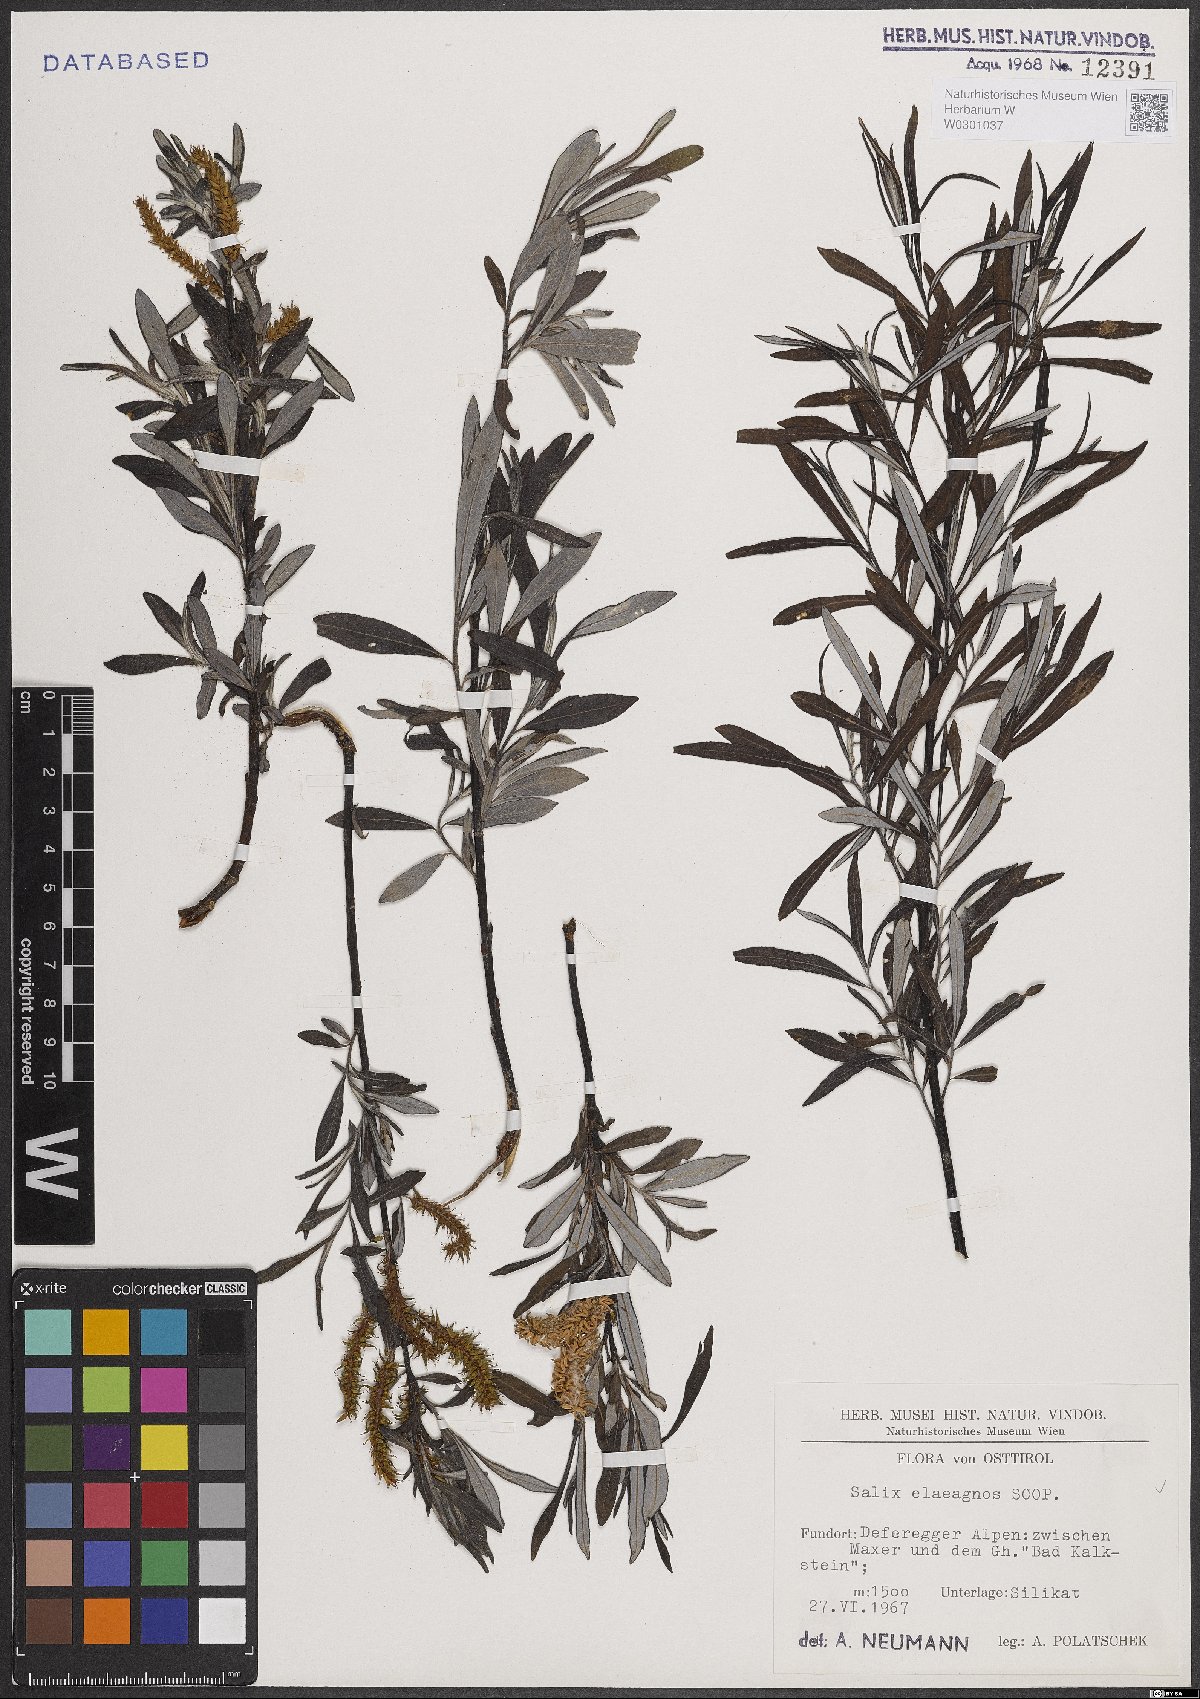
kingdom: Plantae
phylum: Tracheophyta
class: Magnoliopsida
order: Malpighiales
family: Salicaceae
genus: Salix
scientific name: Salix eleagnos
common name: Elaeagnus willow
